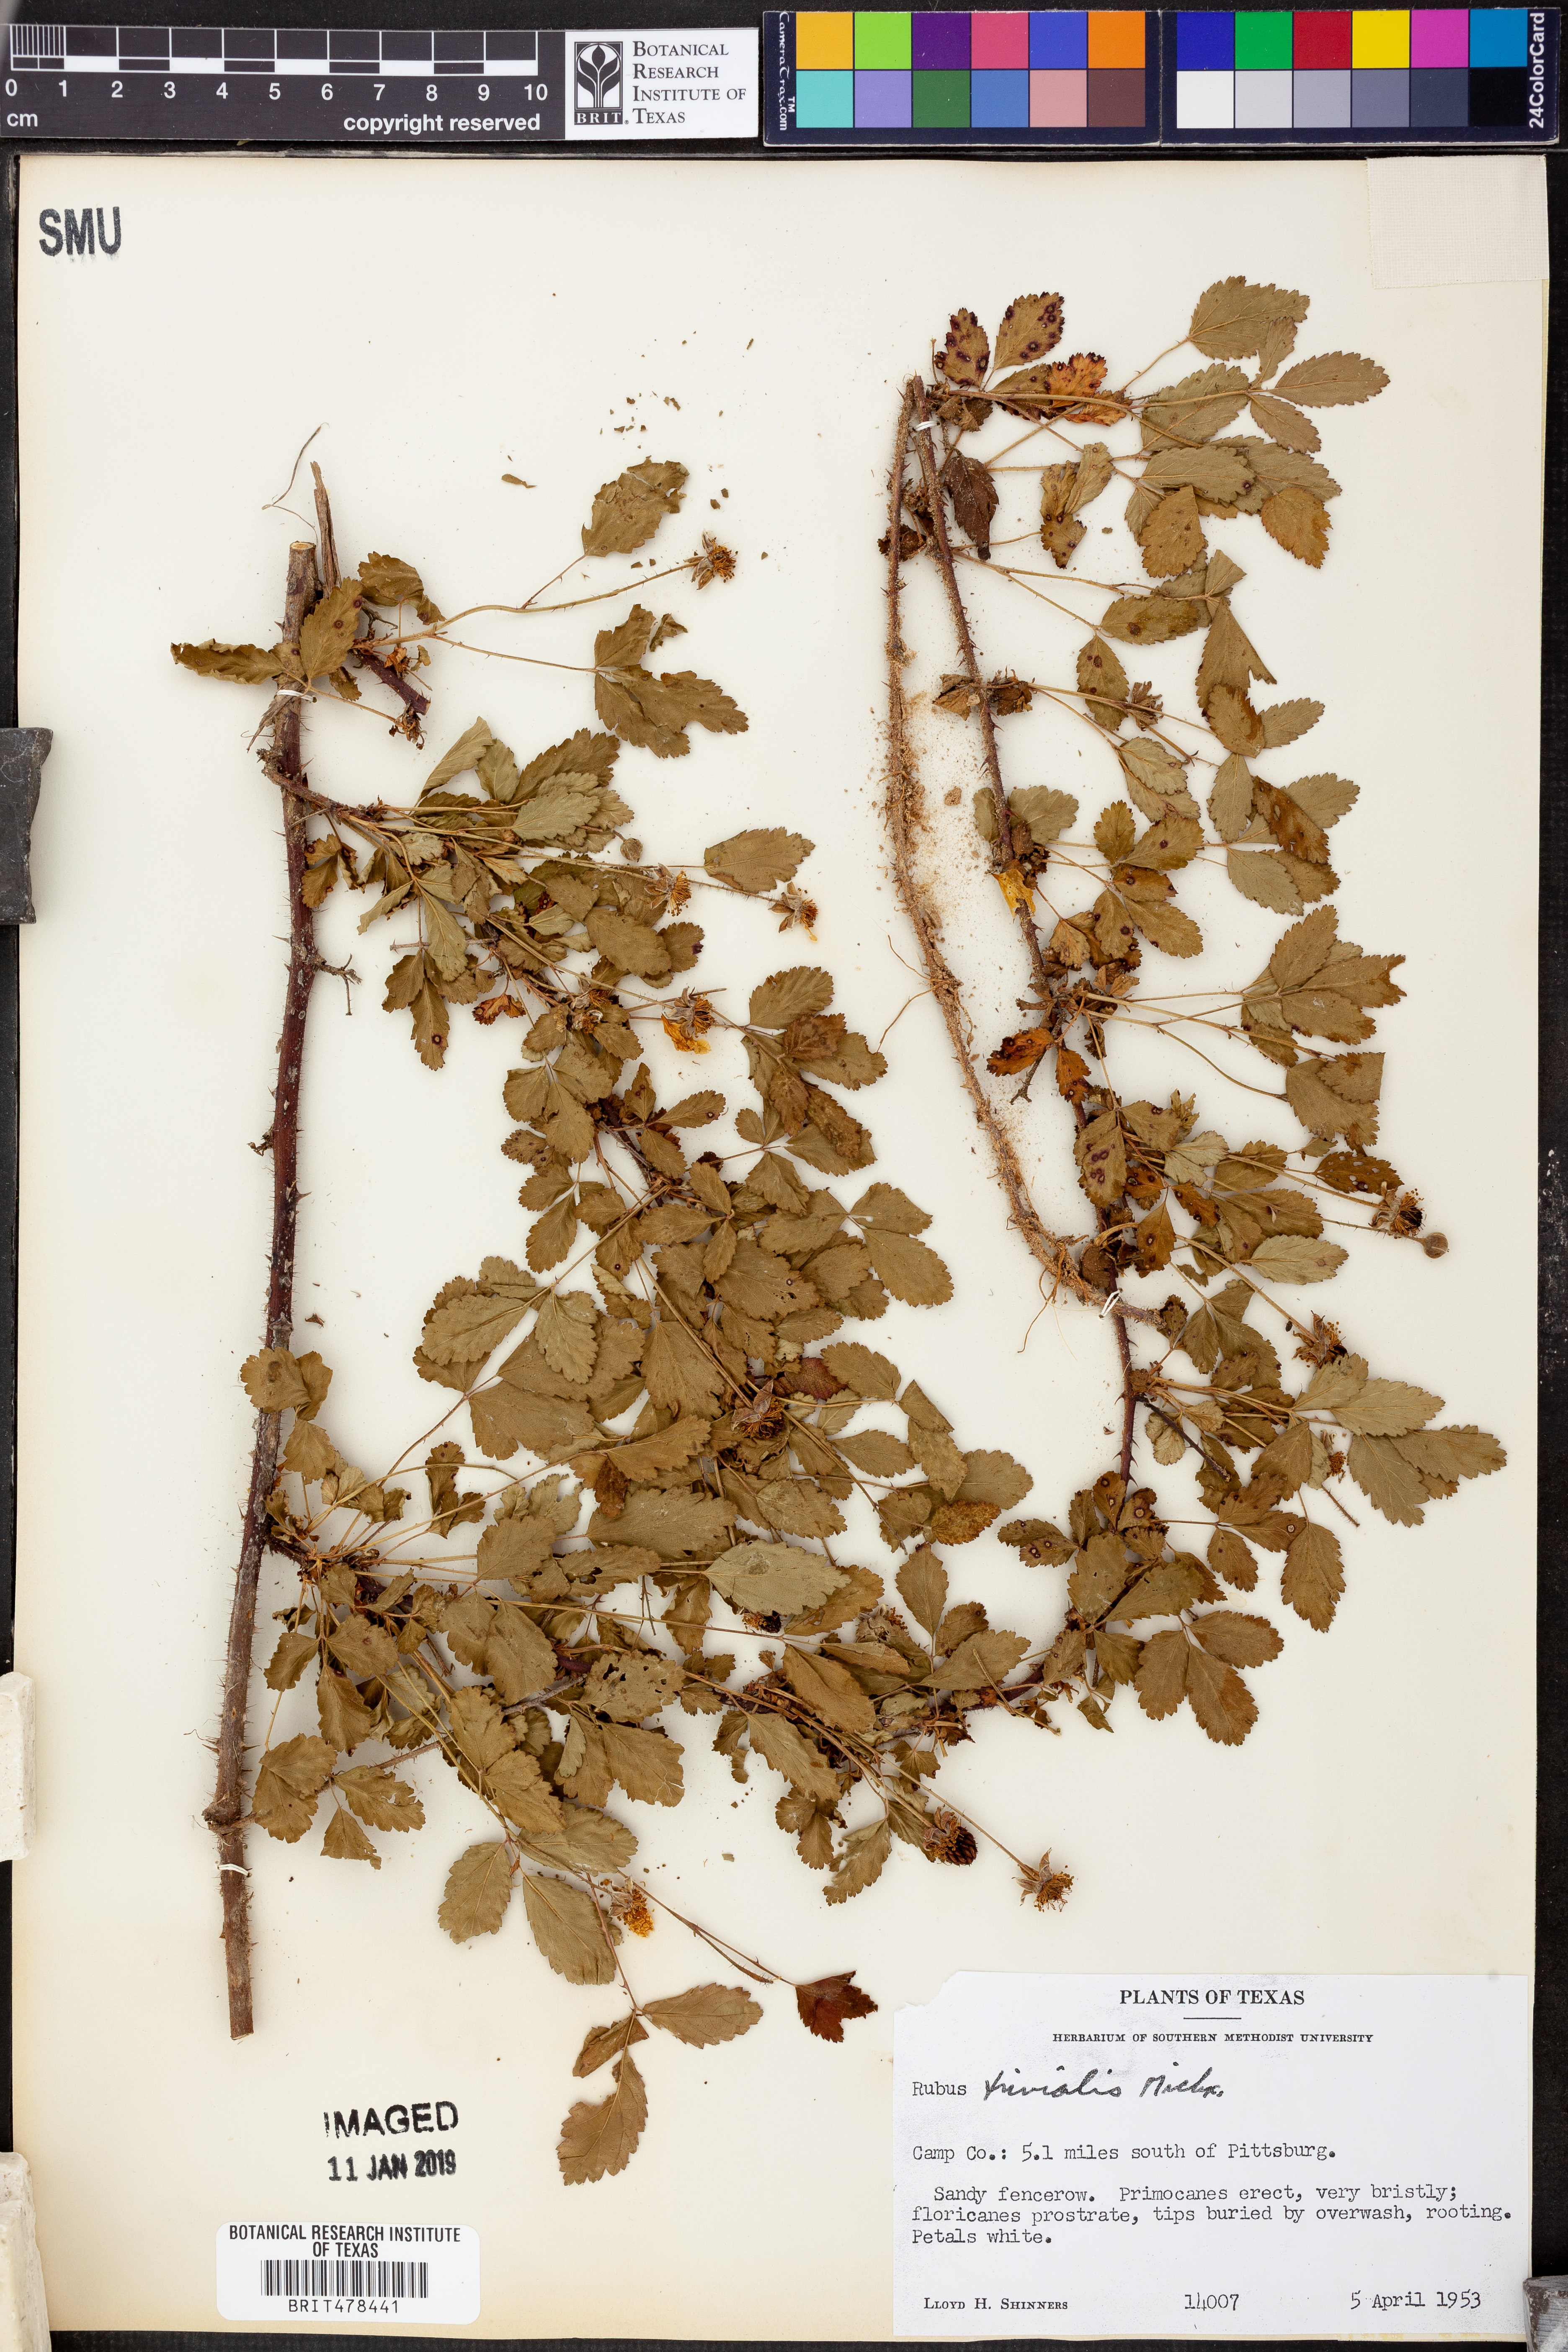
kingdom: Plantae
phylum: Tracheophyta
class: Magnoliopsida
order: Rosales
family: Rosaceae
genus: Rubus
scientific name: Rubus trivialis
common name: Southern dewberry
